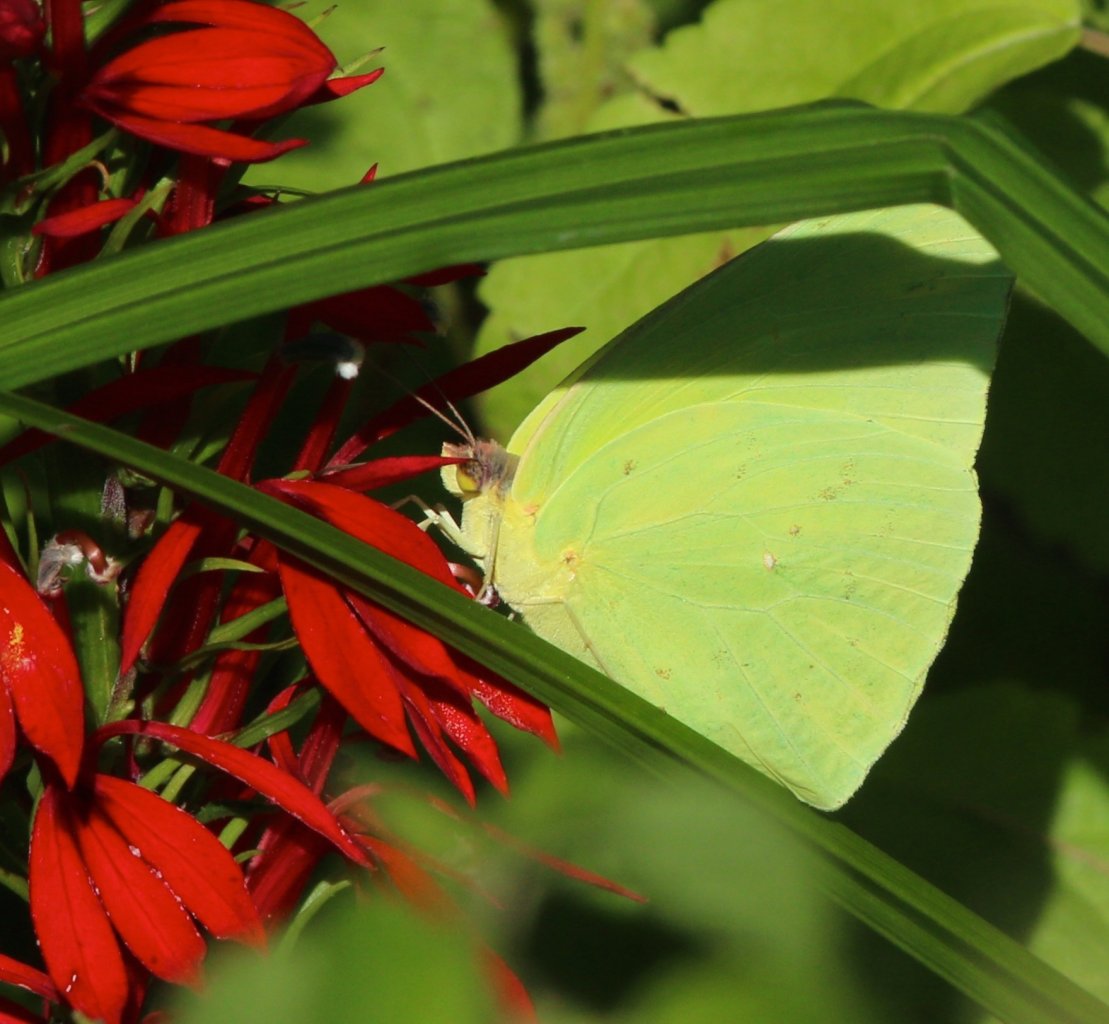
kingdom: Animalia
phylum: Arthropoda
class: Insecta
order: Lepidoptera
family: Pieridae
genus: Phoebis
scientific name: Phoebis sennae
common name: Cloudless Sulphur
